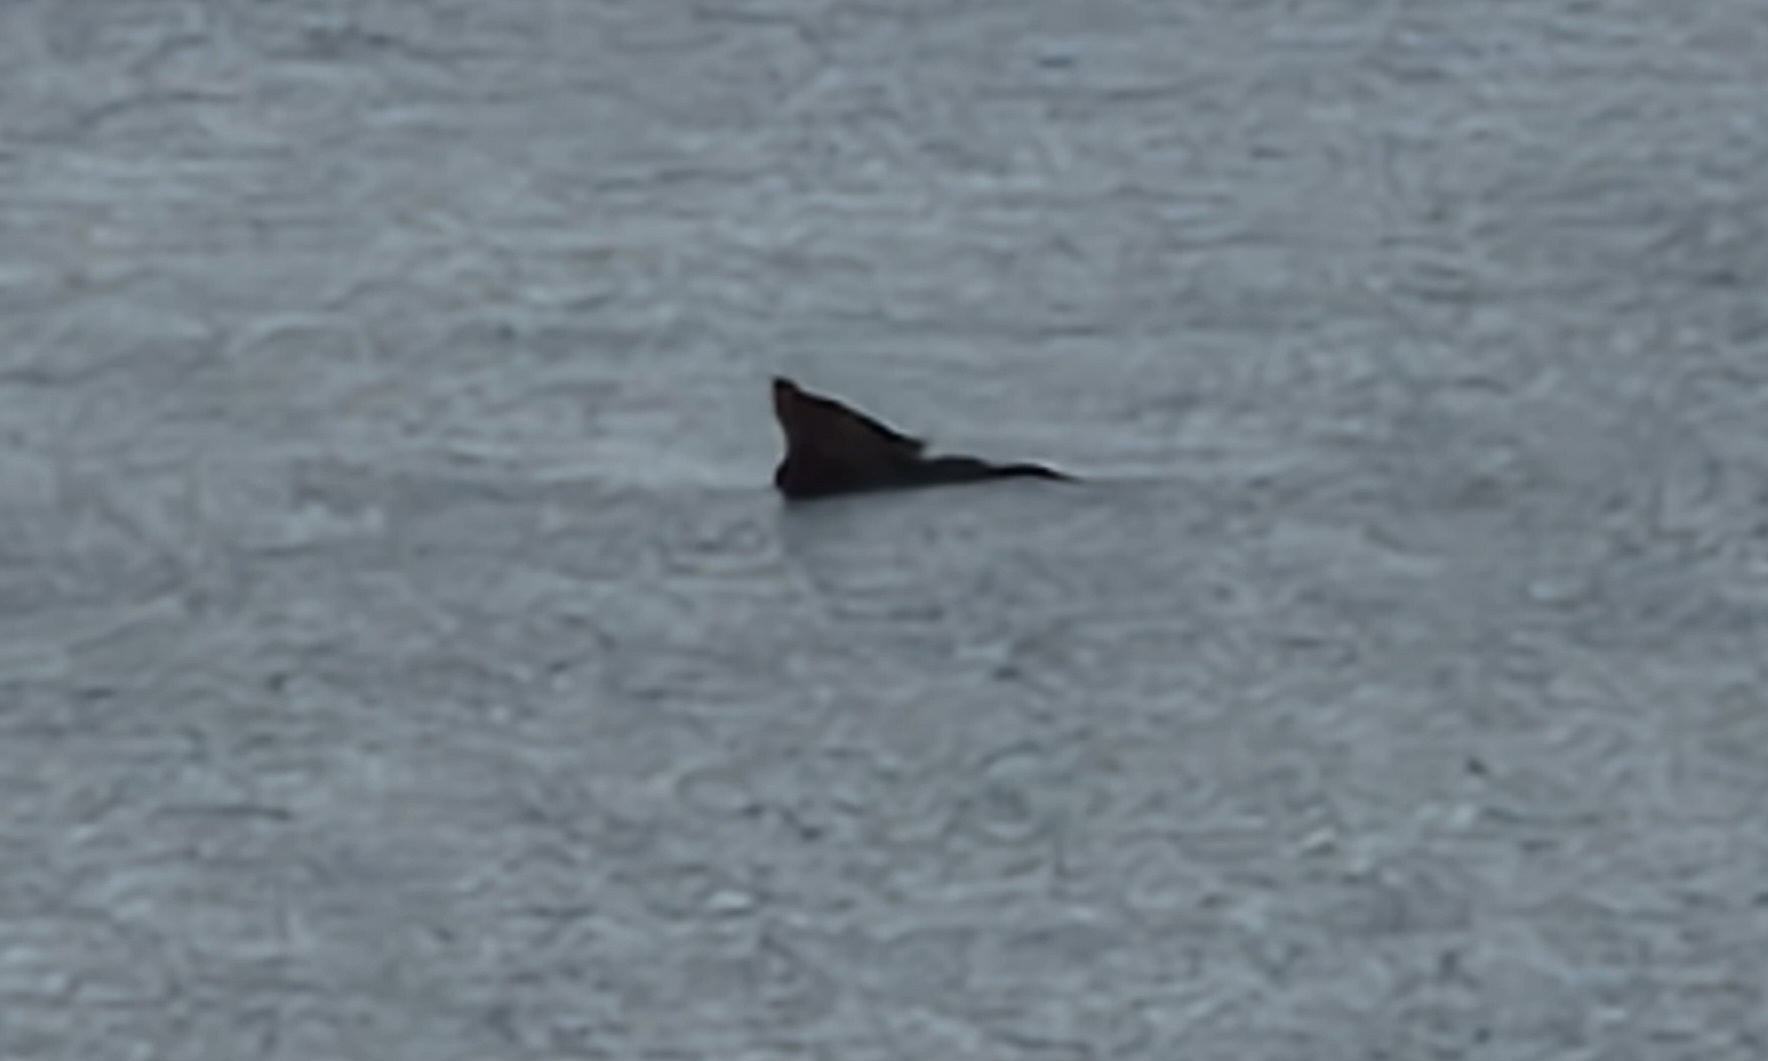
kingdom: Animalia
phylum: Chordata
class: Mammalia
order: Carnivora
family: Phocidae
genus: Phoca
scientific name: Phoca vitulina
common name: Spættet sæl
